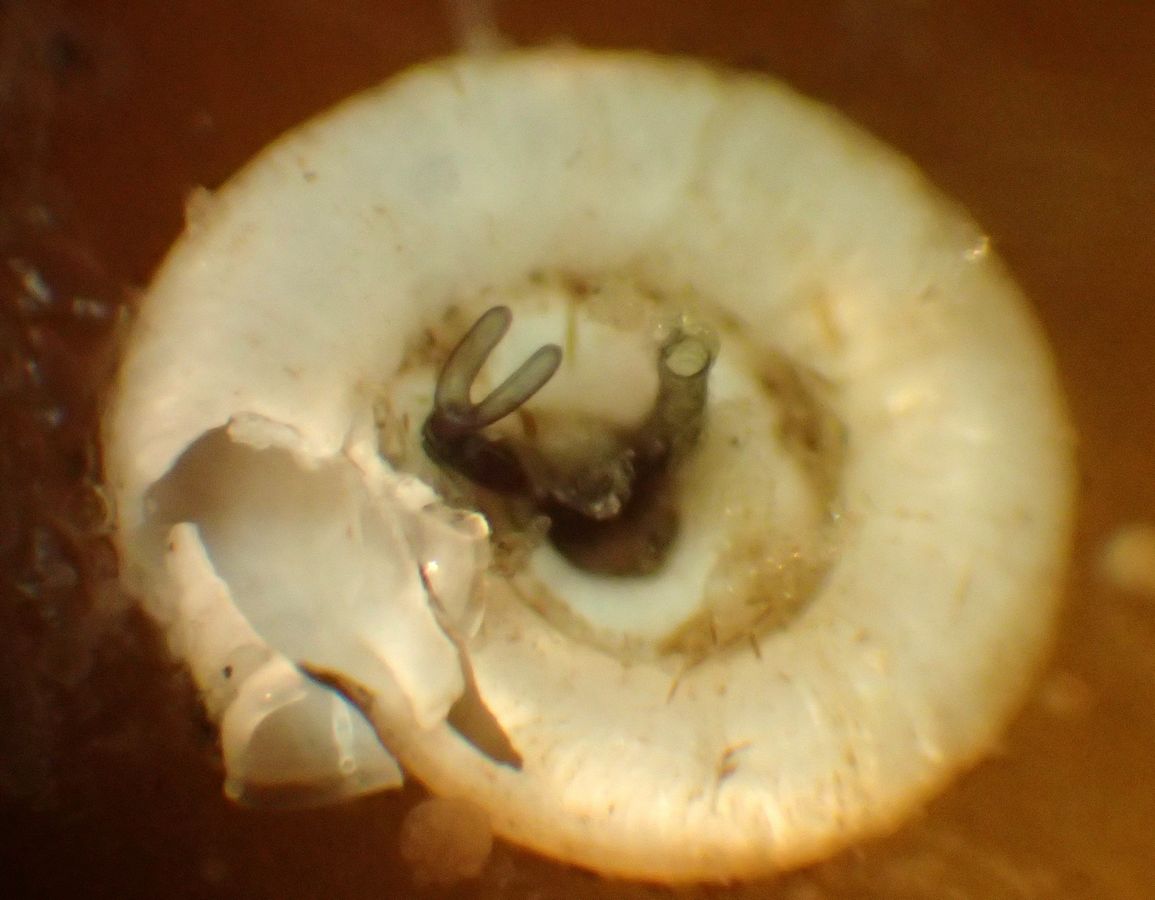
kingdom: Chromista
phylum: Ciliophora
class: Heterotrichea
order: Heterotrichida
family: Folliculinidae
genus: Lagotia
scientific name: Lagotia expansa
